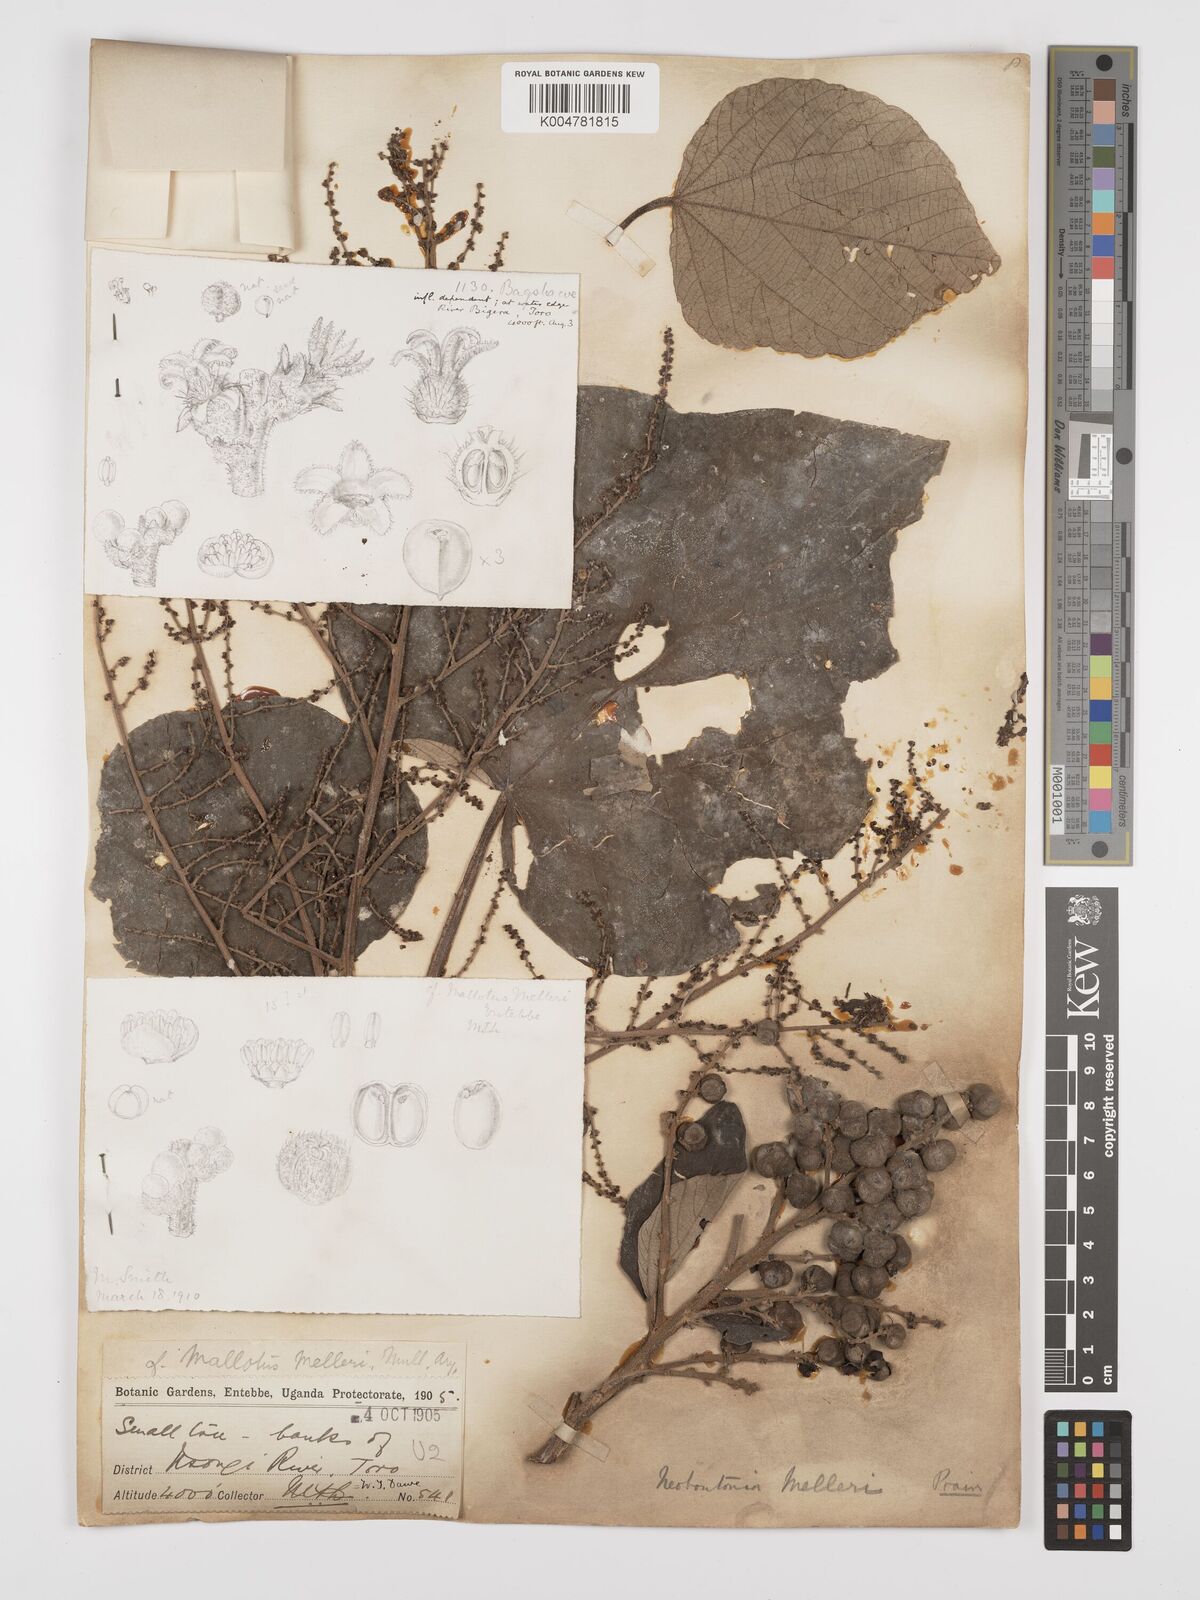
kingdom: Plantae
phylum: Tracheophyta
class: Magnoliopsida
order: Malpighiales
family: Euphorbiaceae
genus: Neoboutonia
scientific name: Neoboutonia melleri
